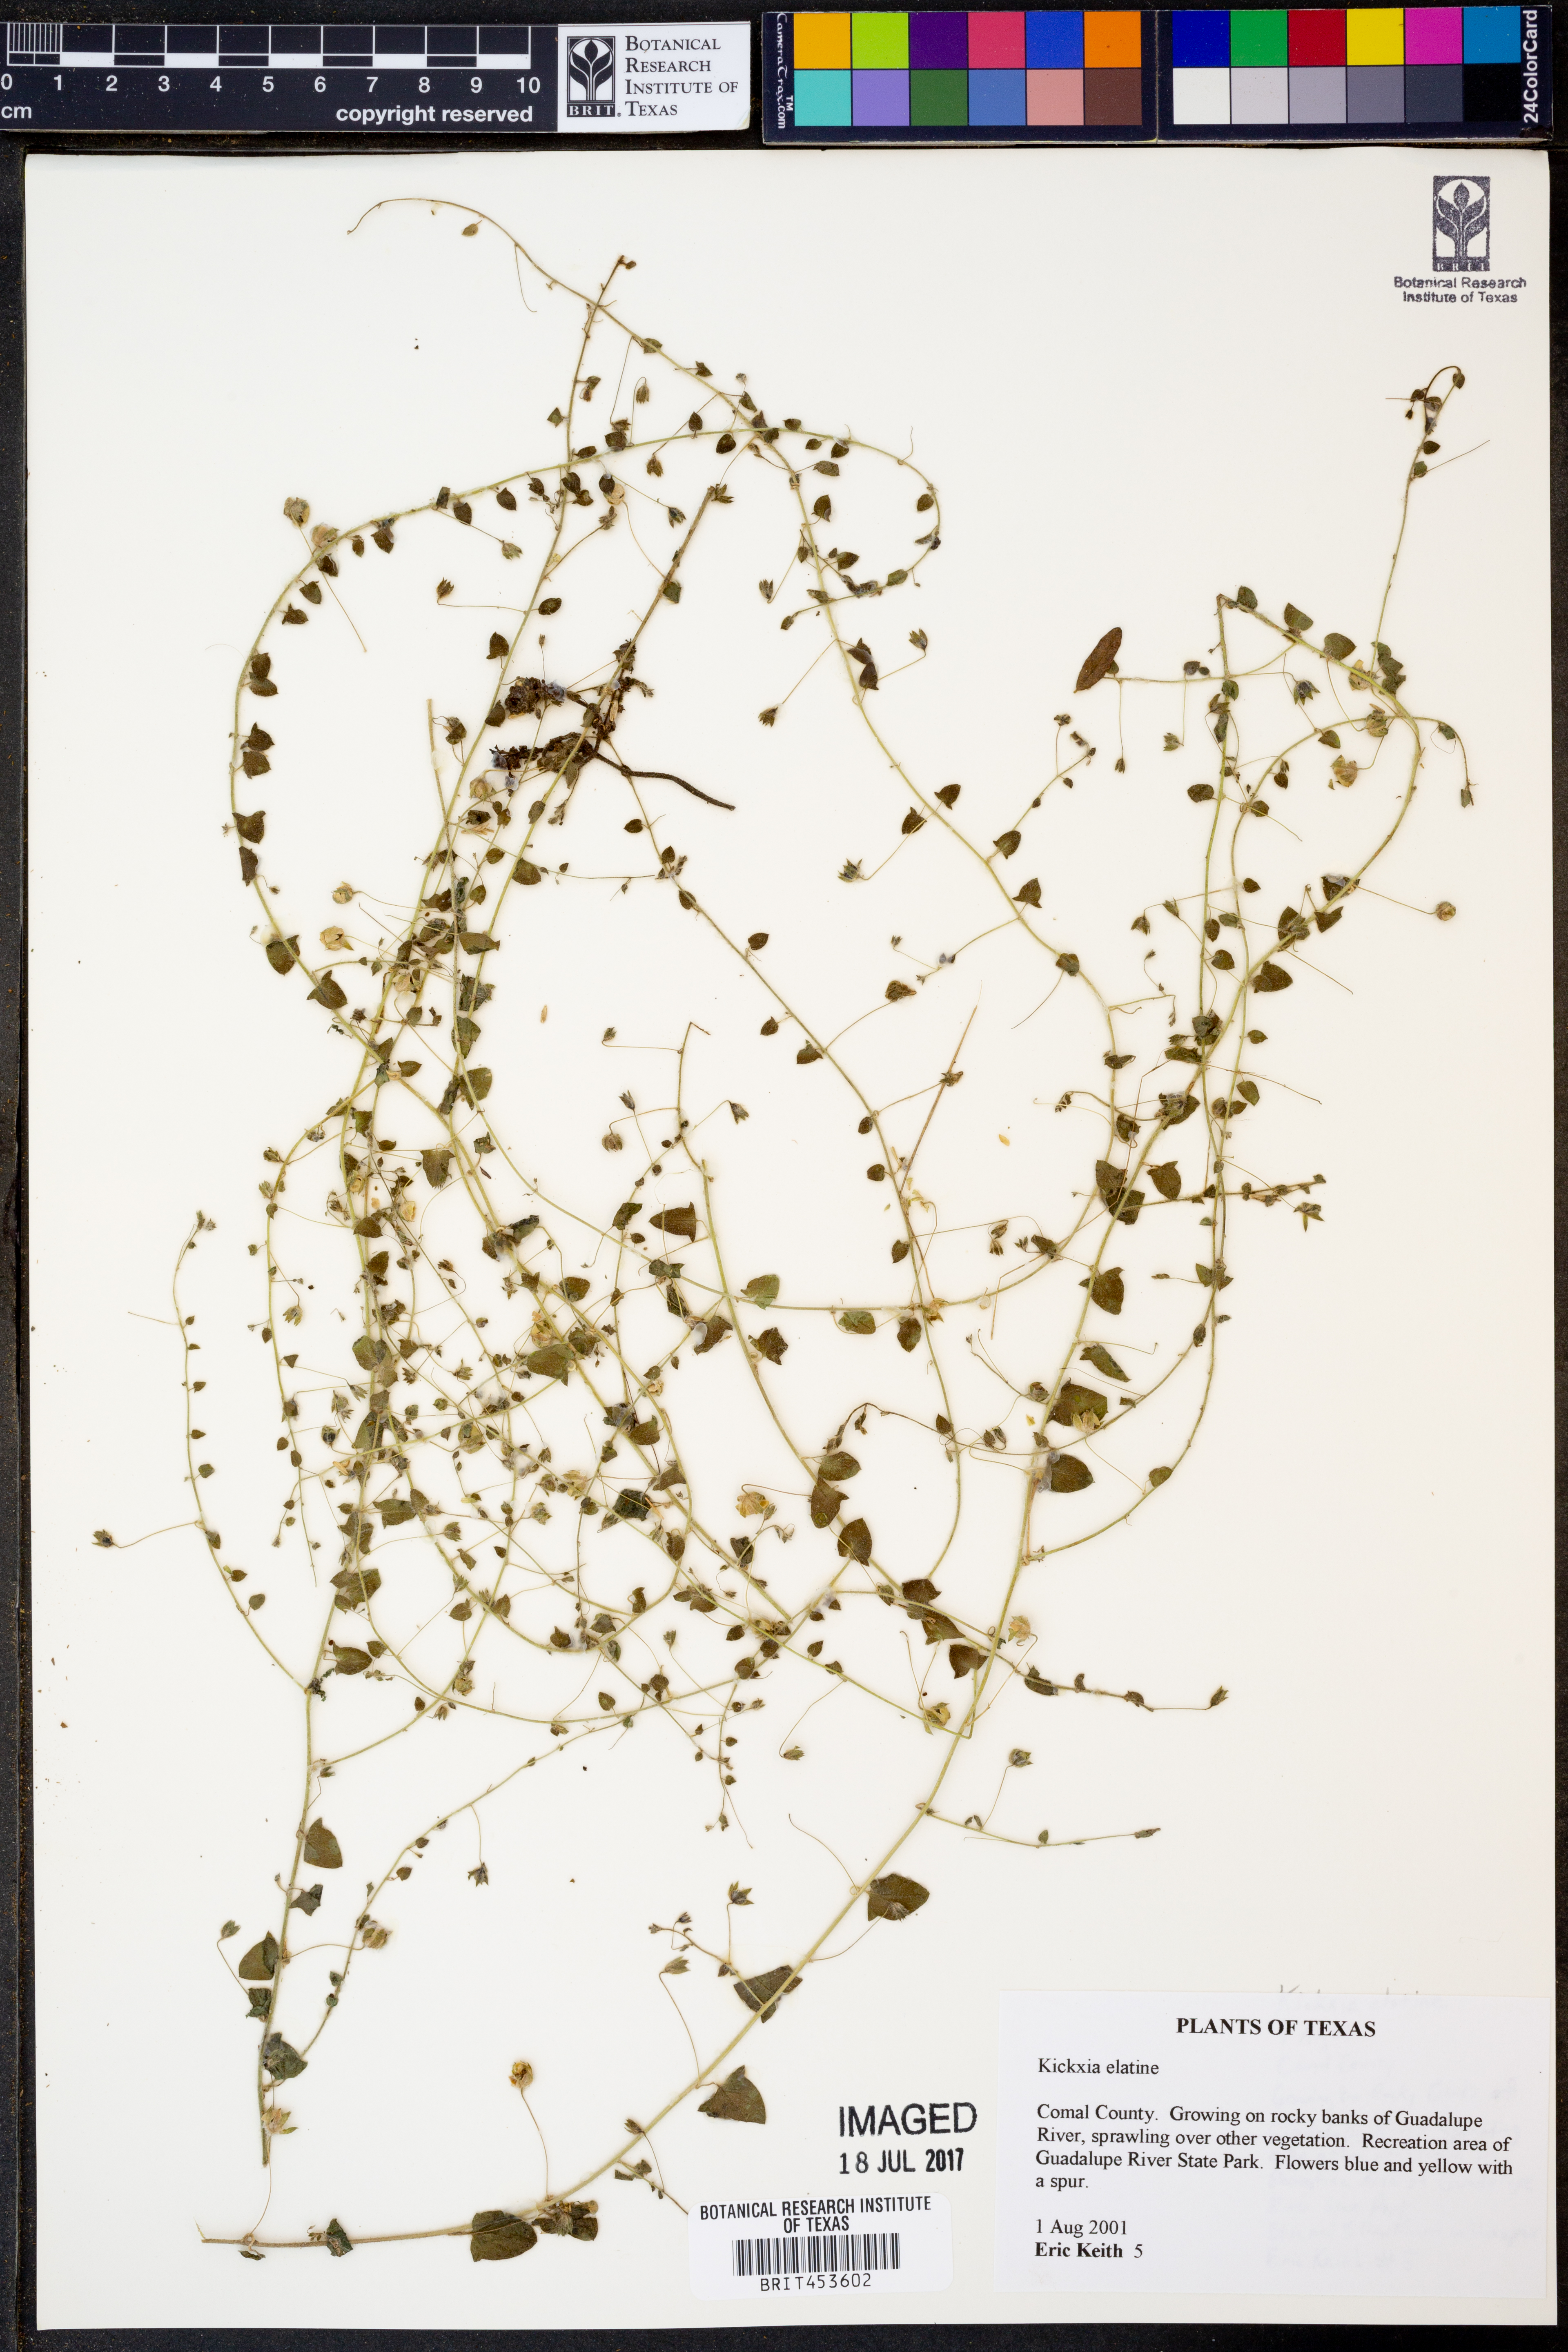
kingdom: Plantae
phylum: Tracheophyta
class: Magnoliopsida
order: Lamiales
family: Plantaginaceae
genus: Kickxia
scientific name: Kickxia elatine
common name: Sharp-leaved fluellen
